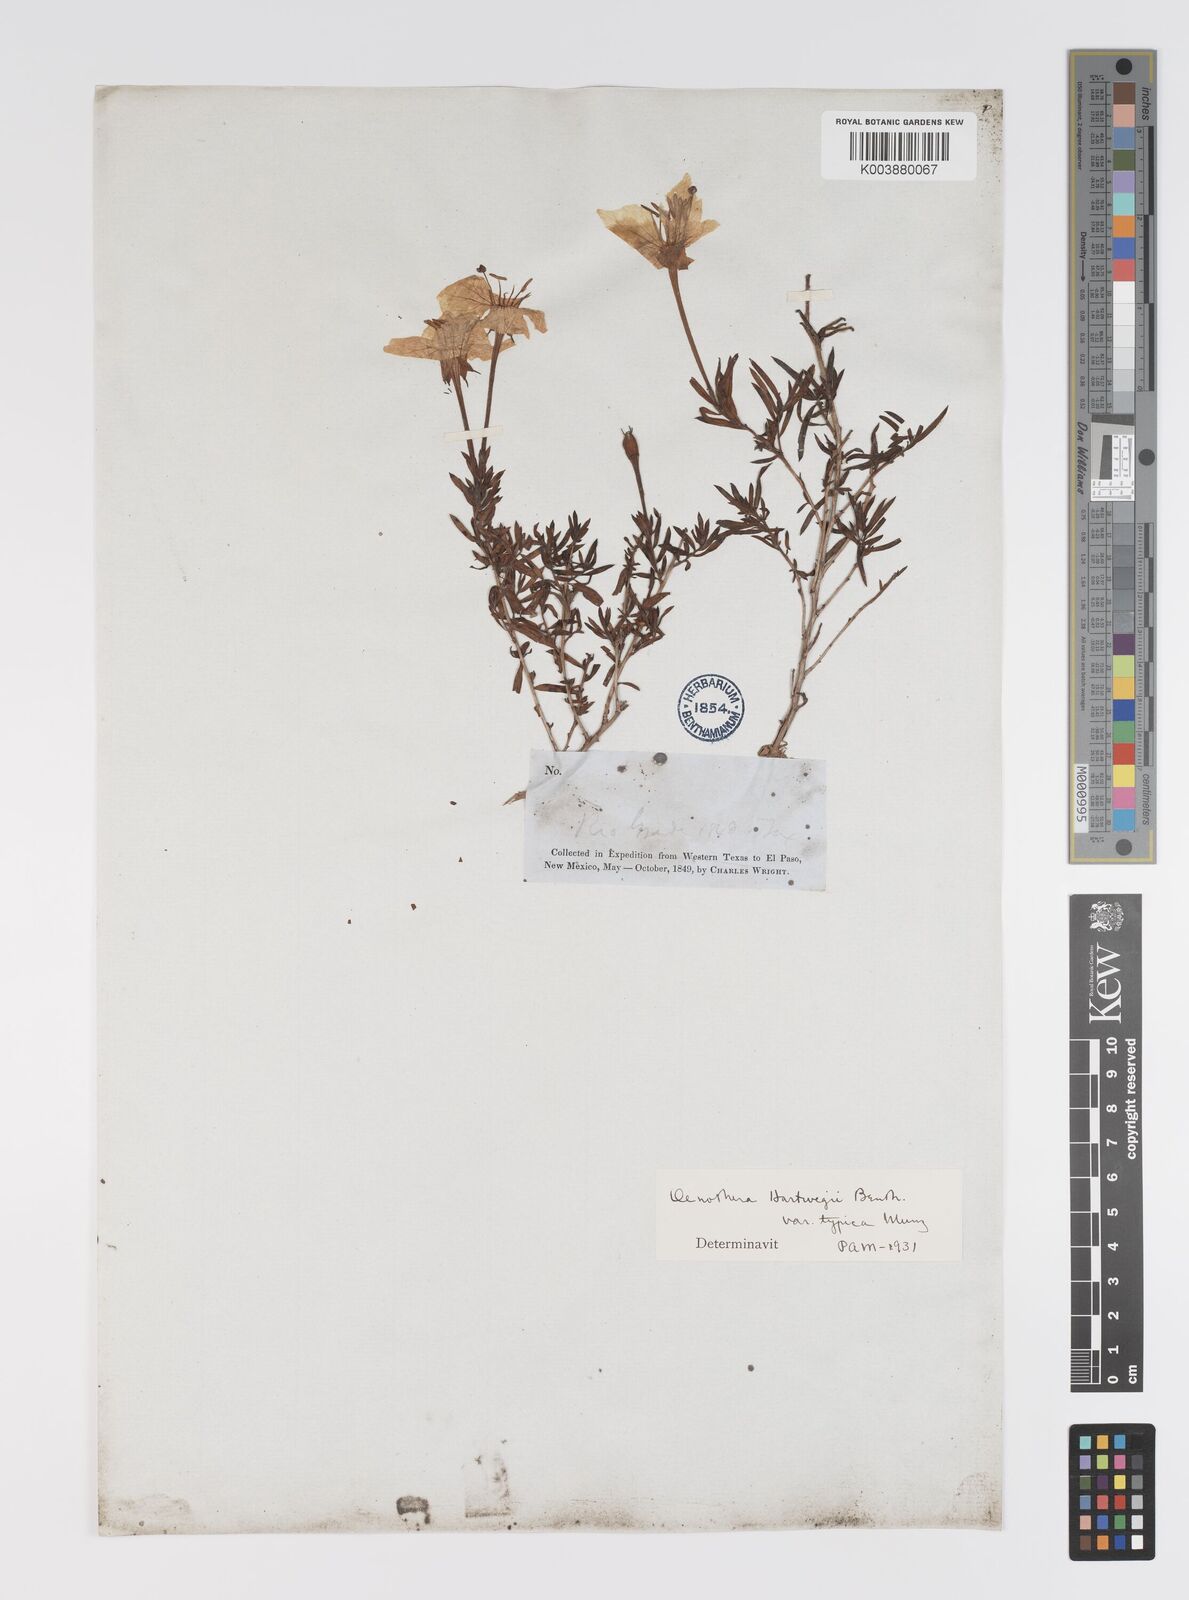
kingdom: Plantae
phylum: Tracheophyta
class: Magnoliopsida
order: Myrtales
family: Onagraceae
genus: Oenothera
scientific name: Oenothera hartwegii
